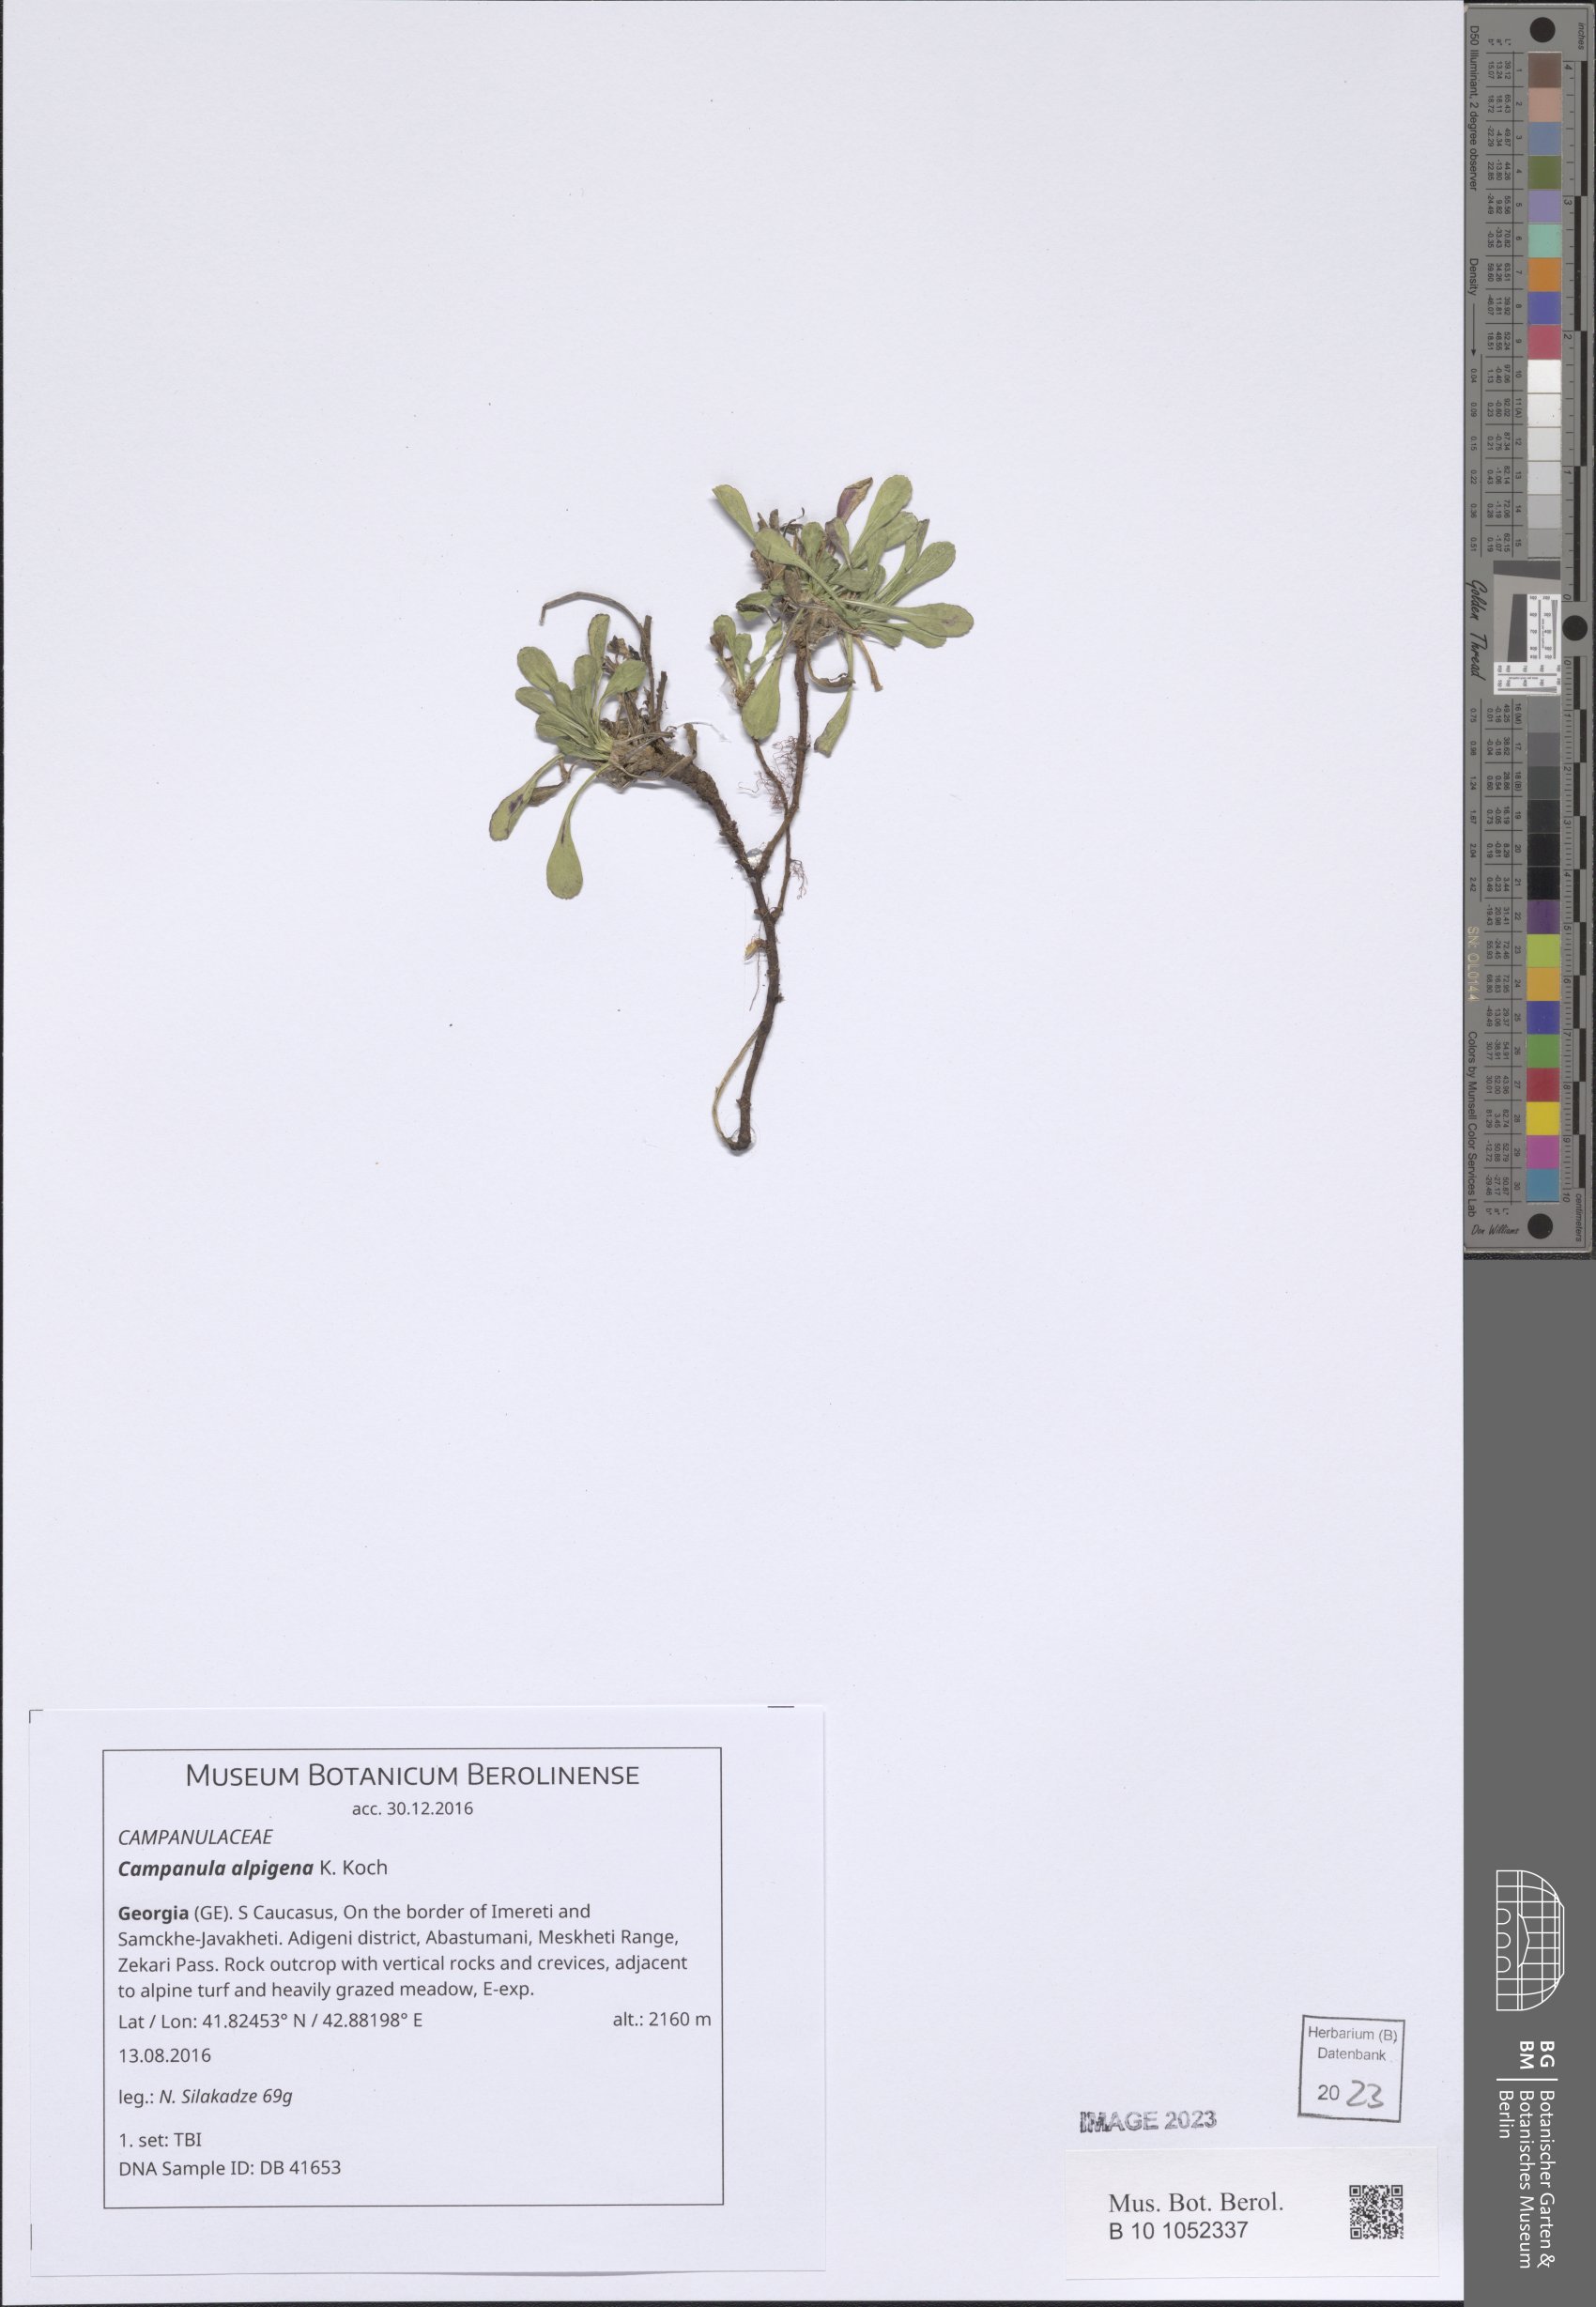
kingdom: Plantae
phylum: Tracheophyta
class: Magnoliopsida
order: Asterales
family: Campanulaceae
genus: Campanula
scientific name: Campanula saxifraga
